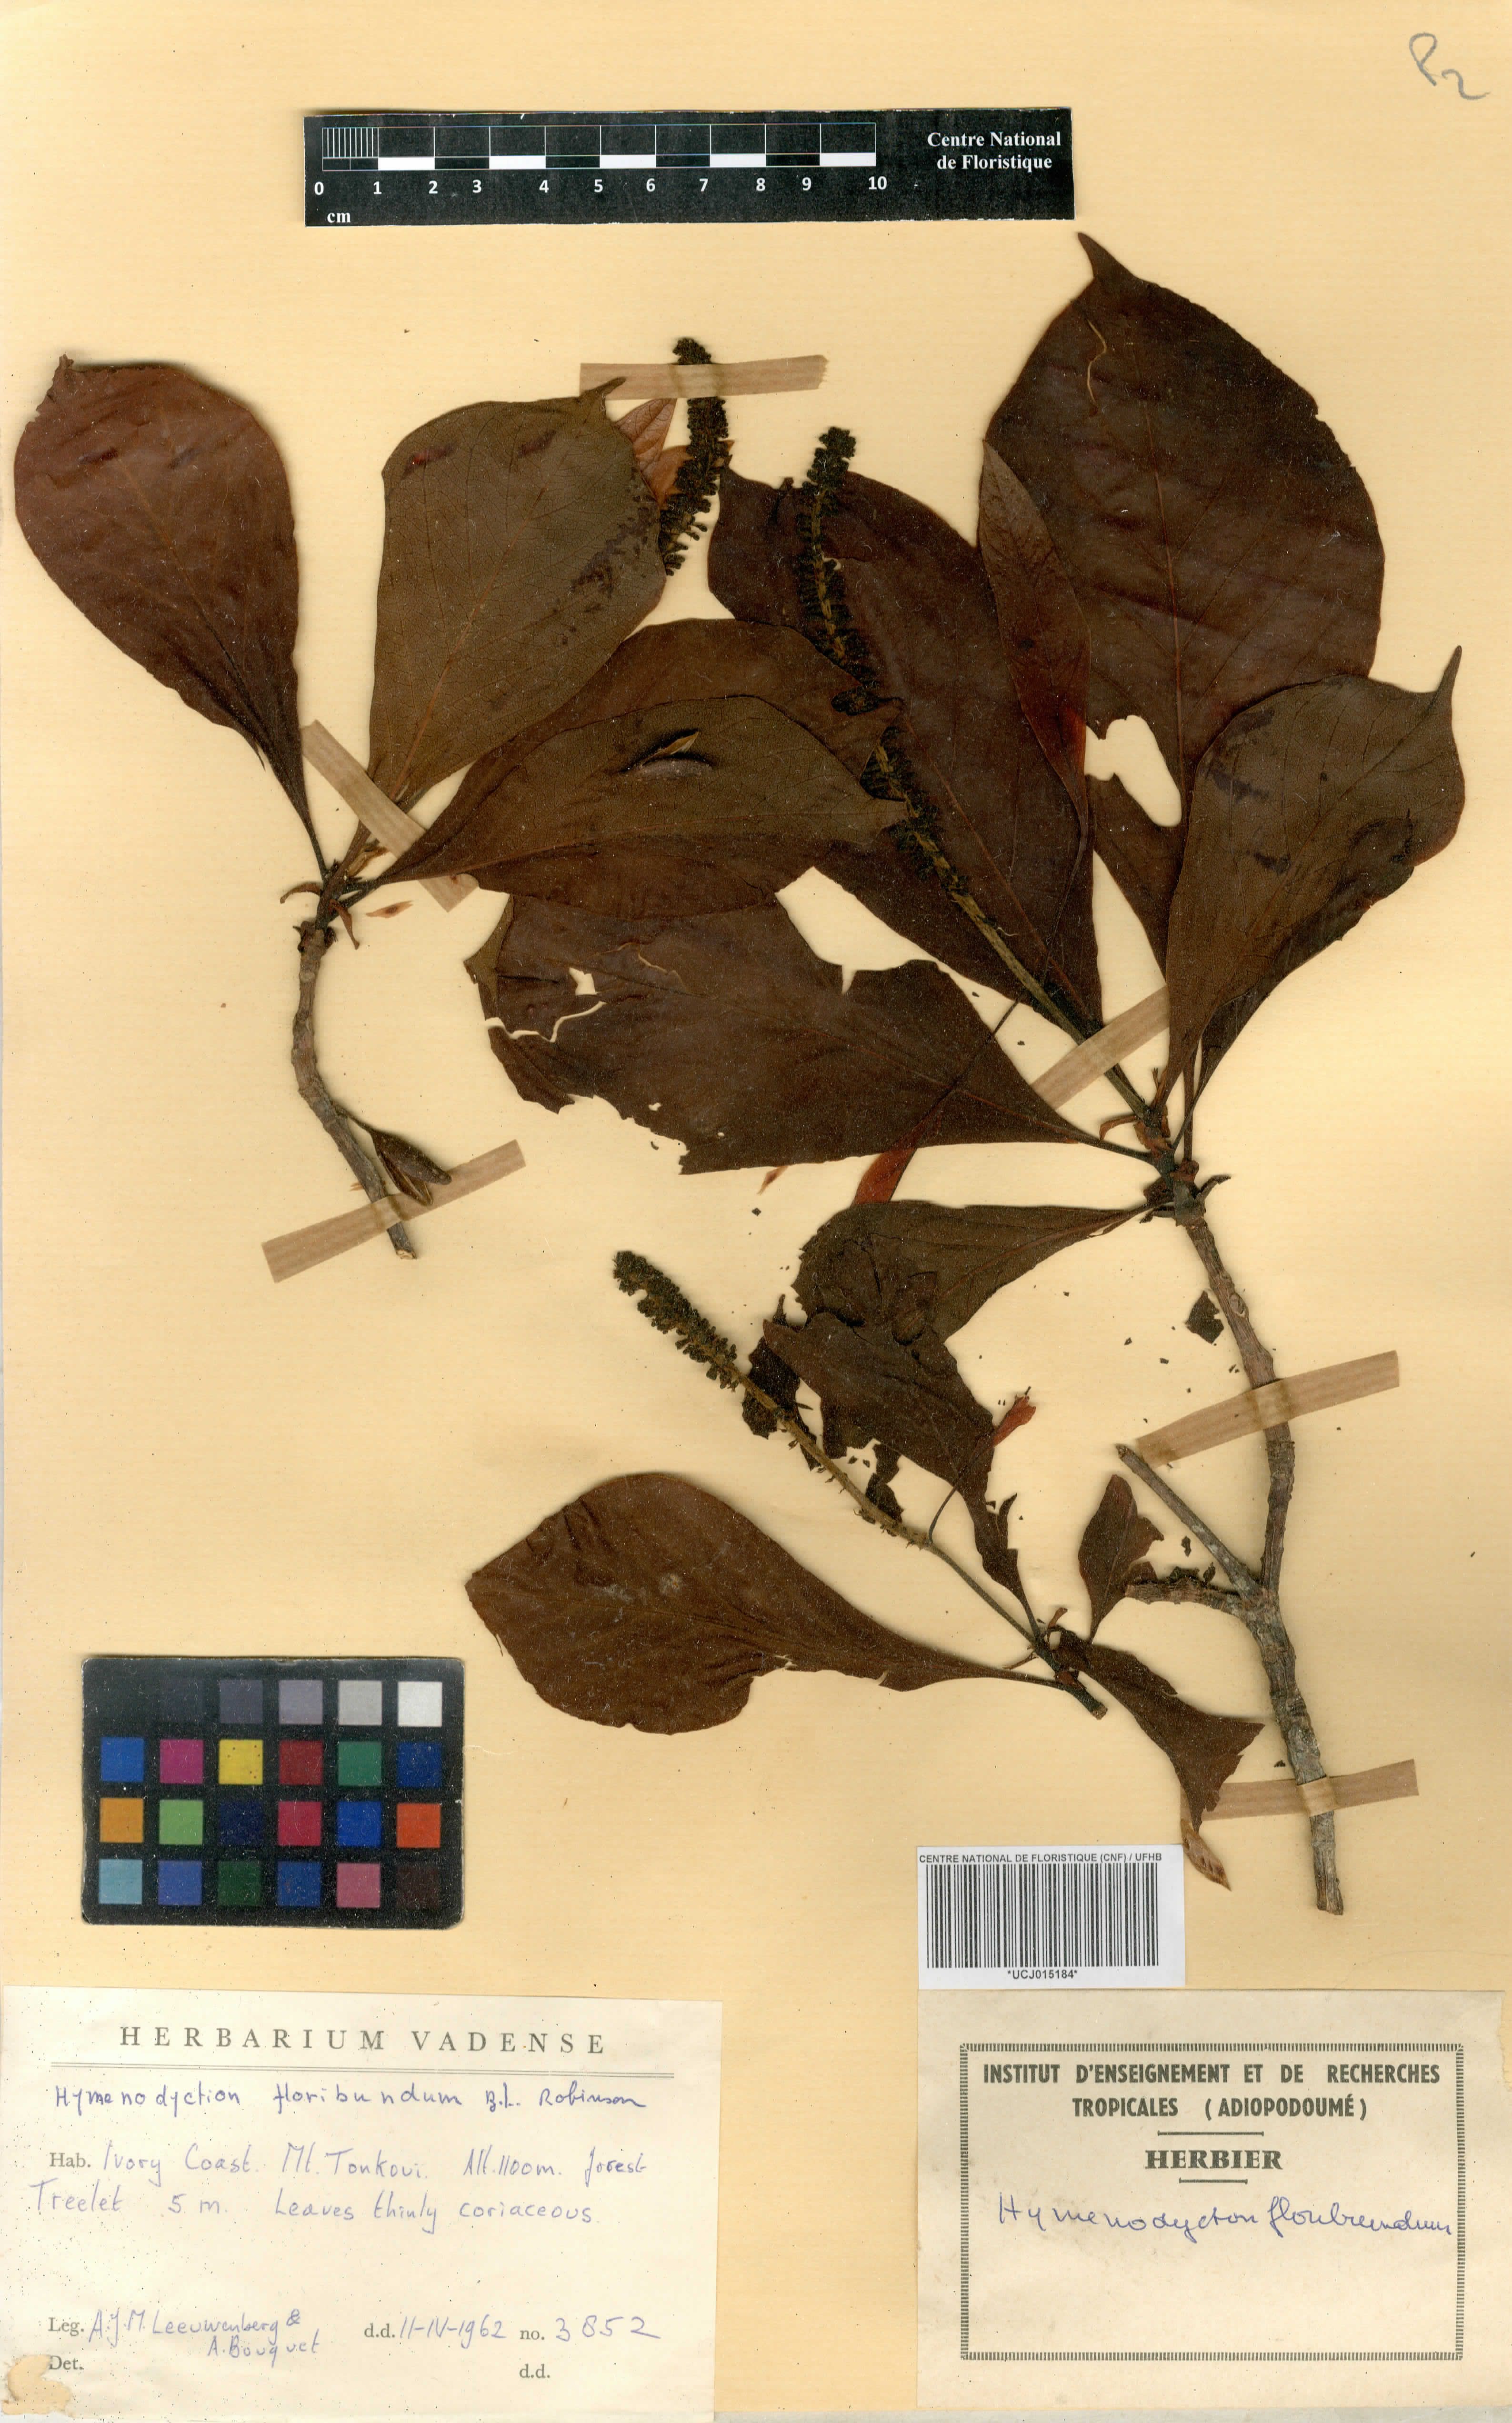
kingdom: Plantae
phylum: Tracheophyta
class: Magnoliopsida
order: Gentianales
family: Rubiaceae
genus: Hymenodictyon
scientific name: Hymenodictyon floribundum
